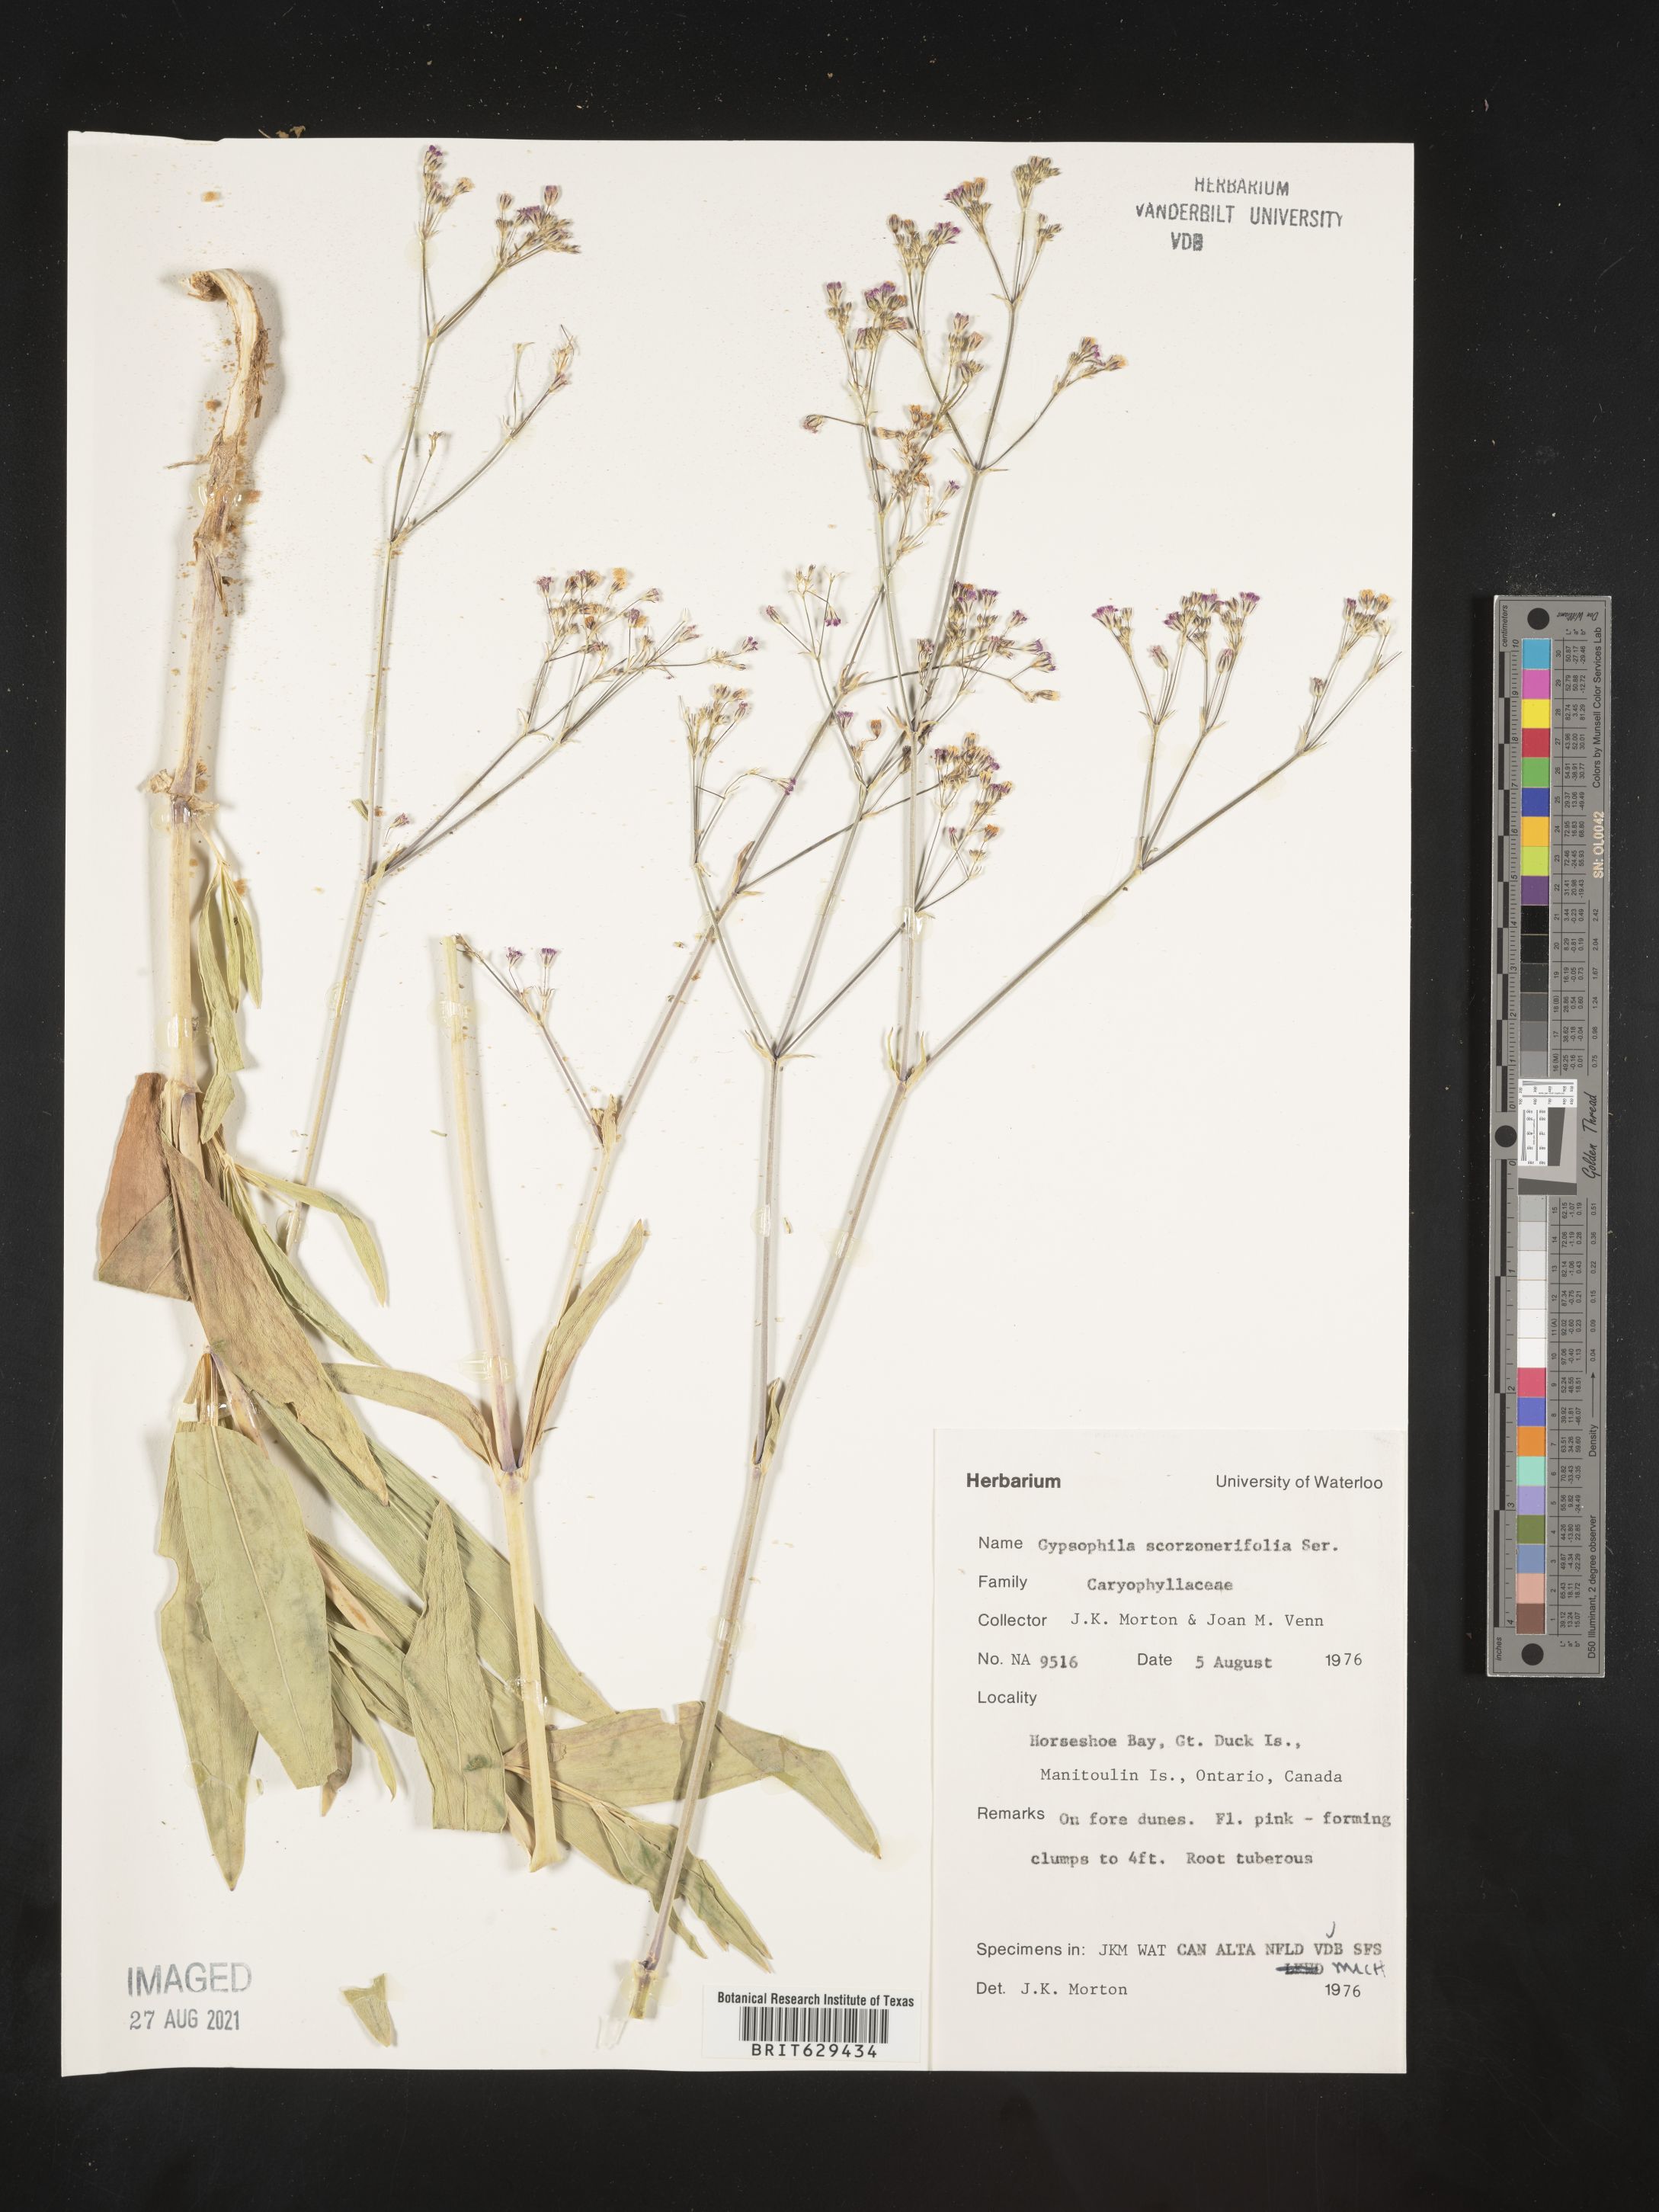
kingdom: Plantae
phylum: Tracheophyta
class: Magnoliopsida
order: Caryophyllales
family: Caryophyllaceae
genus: Gypsophila
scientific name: Gypsophila scorzonerifolia
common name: Garden baby's-breath
